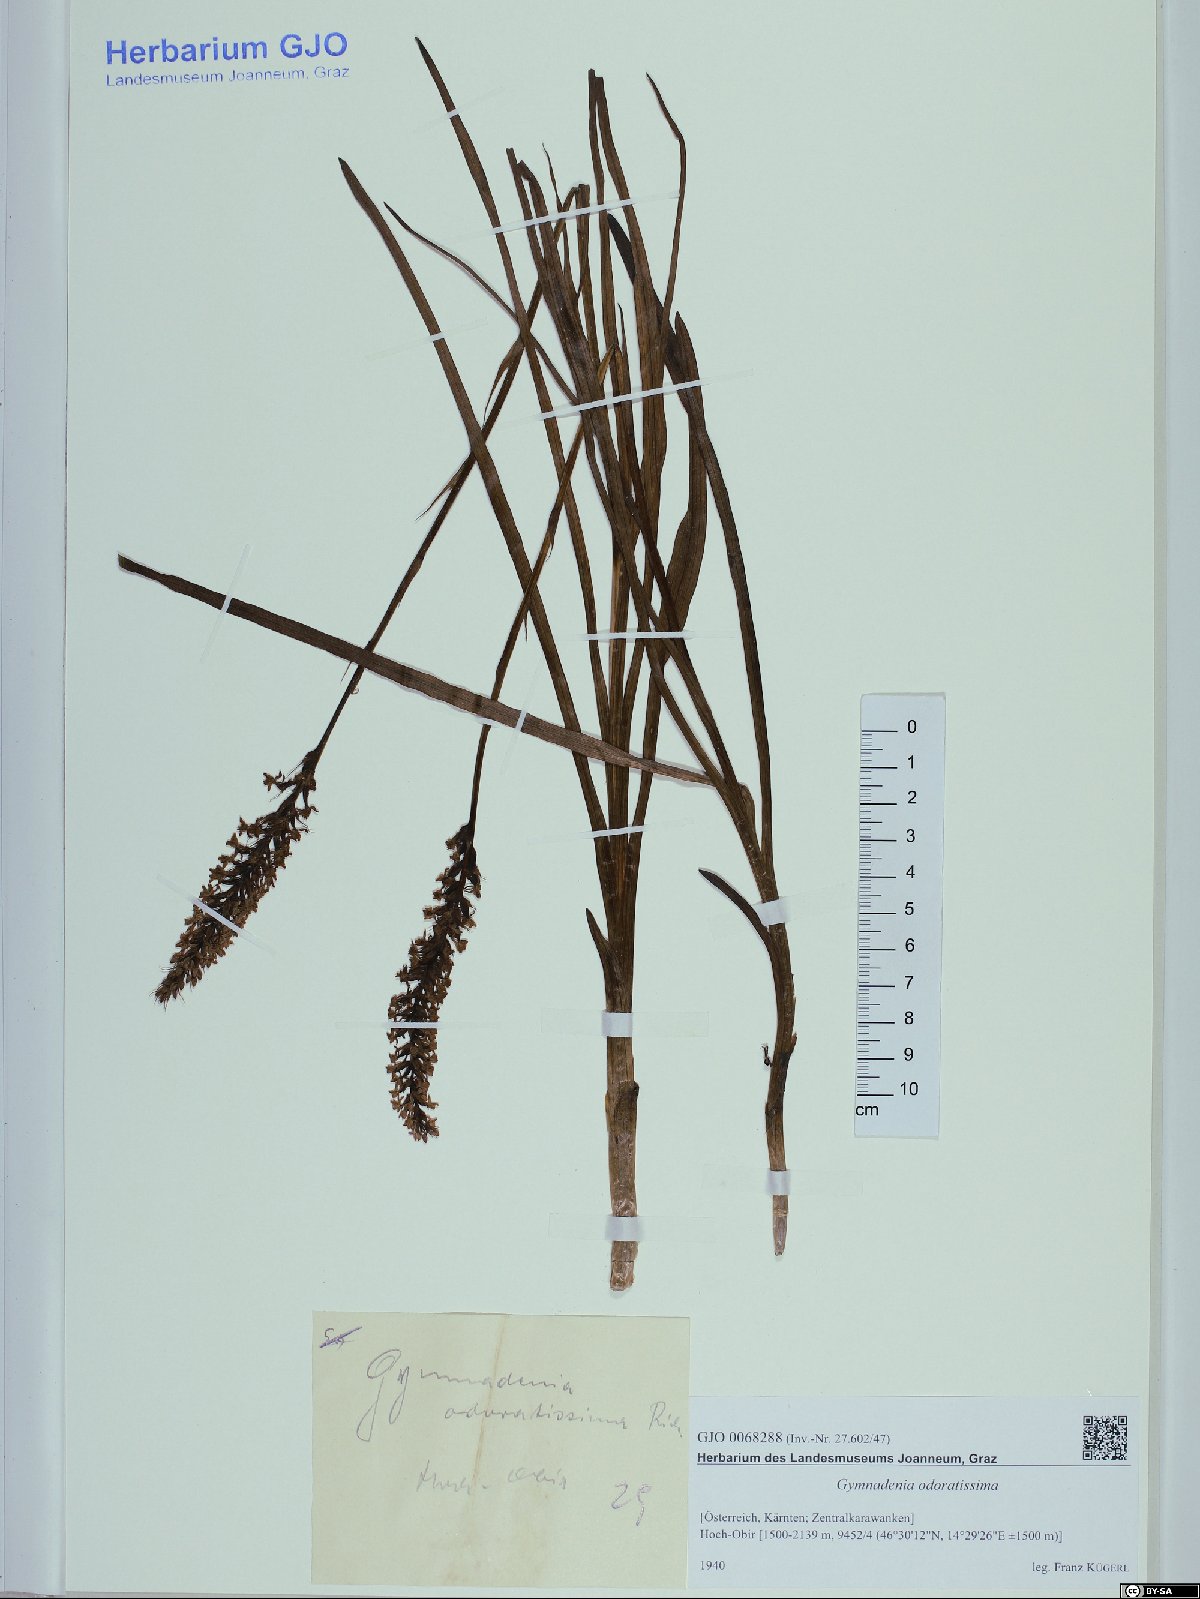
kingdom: Plantae
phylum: Tracheophyta
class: Liliopsida
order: Asparagales
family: Orchidaceae
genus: Gymnadenia
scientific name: Gymnadenia odoratissima
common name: Scented gymnadenia
